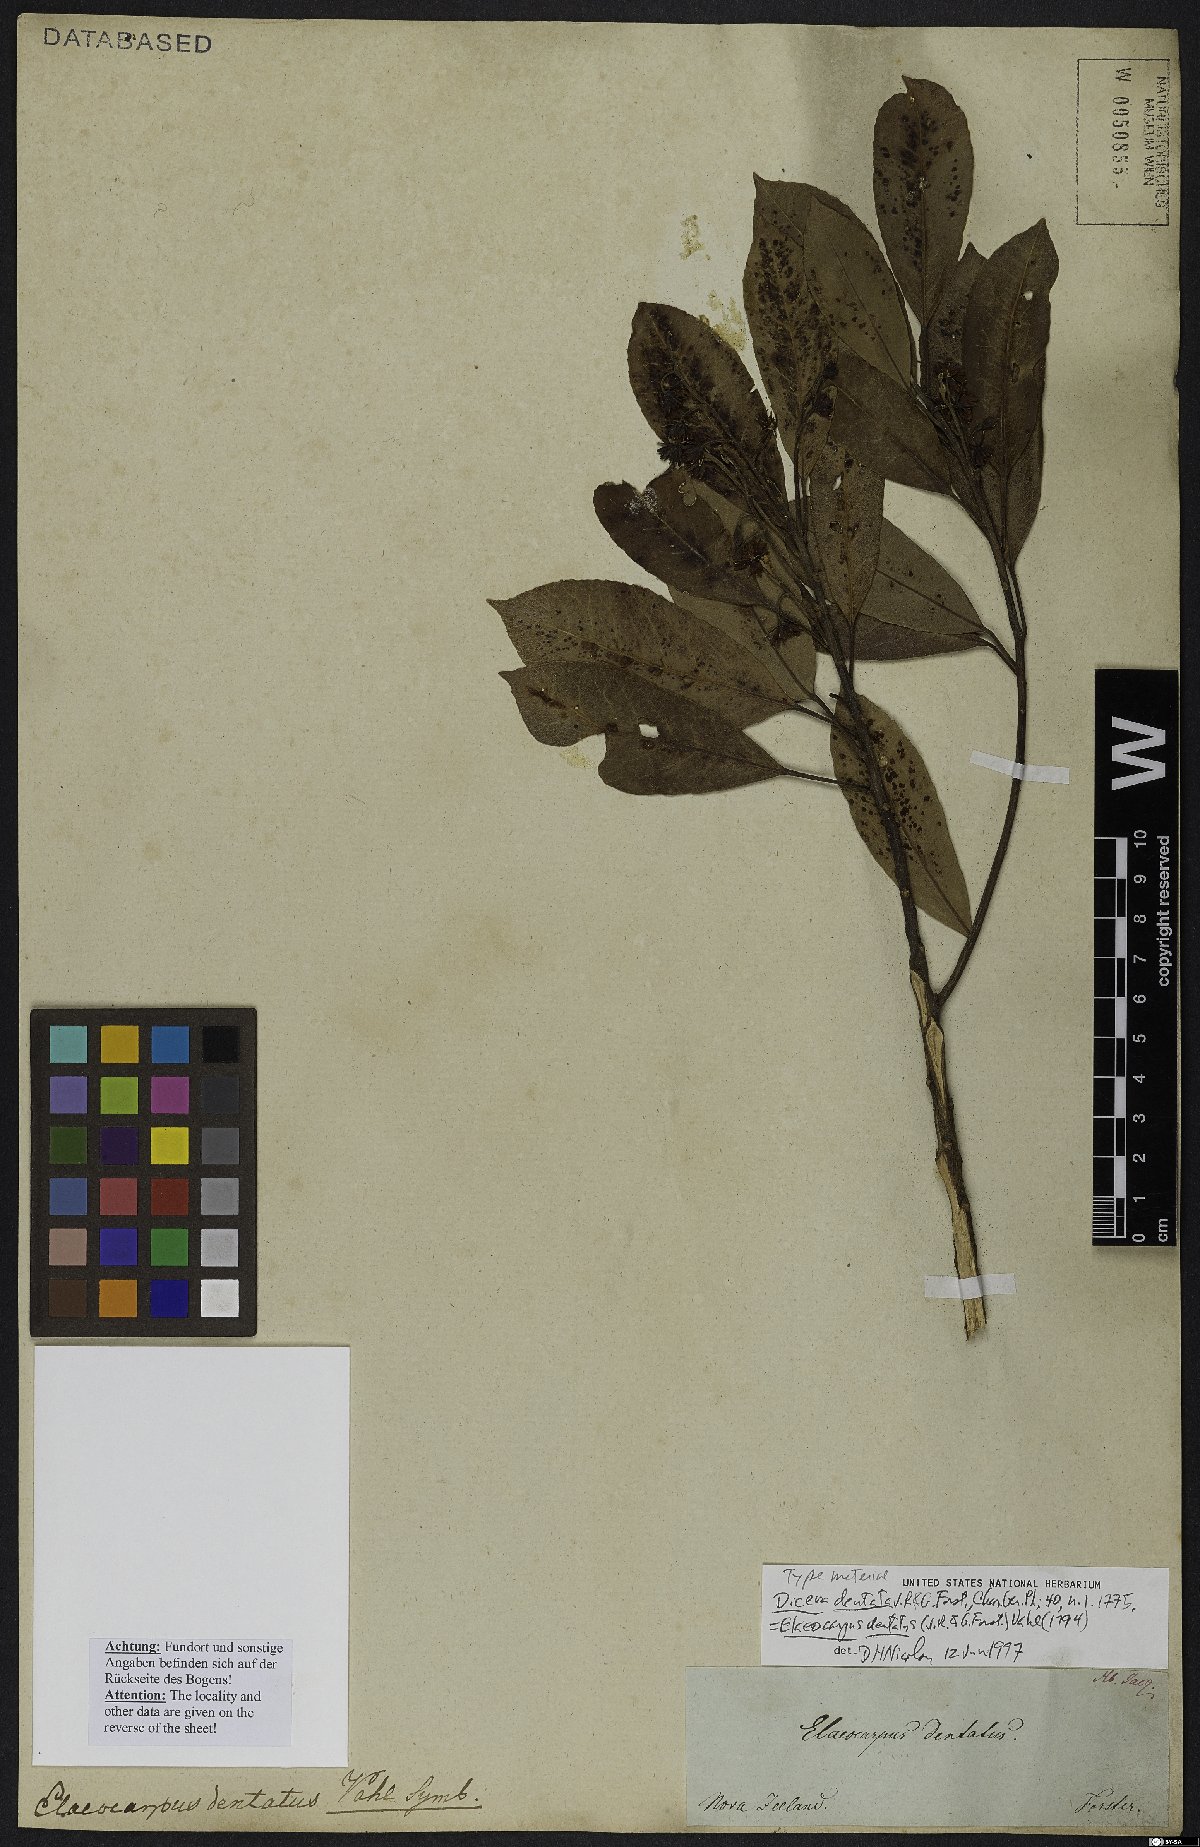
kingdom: Plantae
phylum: Tracheophyta
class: Magnoliopsida
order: Oxalidales
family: Elaeocarpaceae
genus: Elaeocarpus
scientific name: Elaeocarpus dentatus
